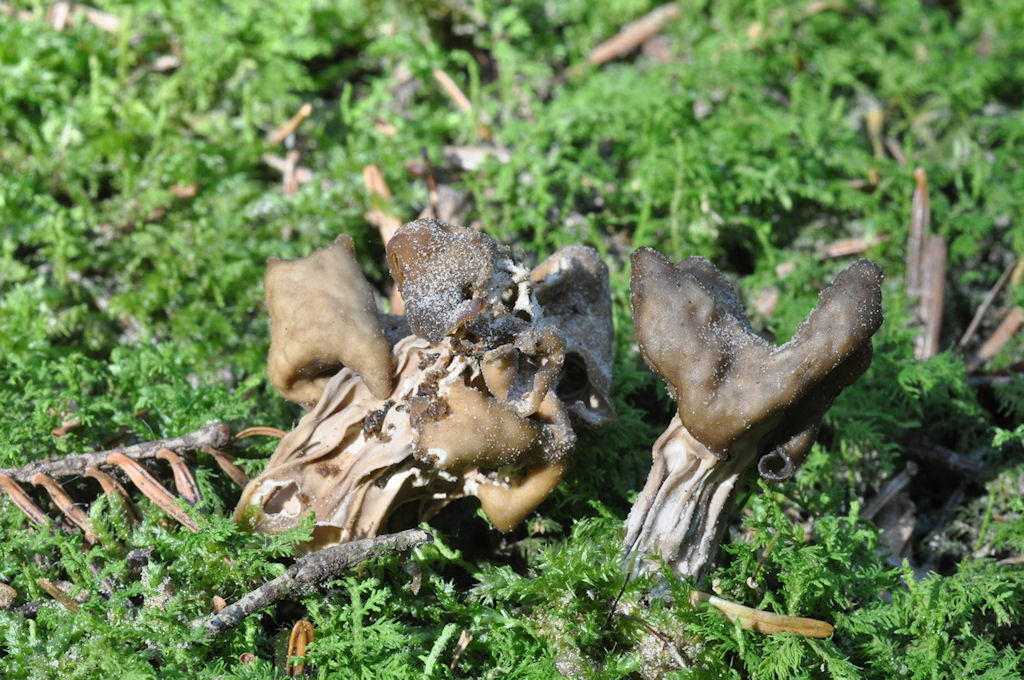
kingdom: Fungi
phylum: Ascomycota
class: Pezizomycetes
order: Pezizales
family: Helvellaceae
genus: Helvella
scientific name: Helvella lacunosa
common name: grubet foldhat
